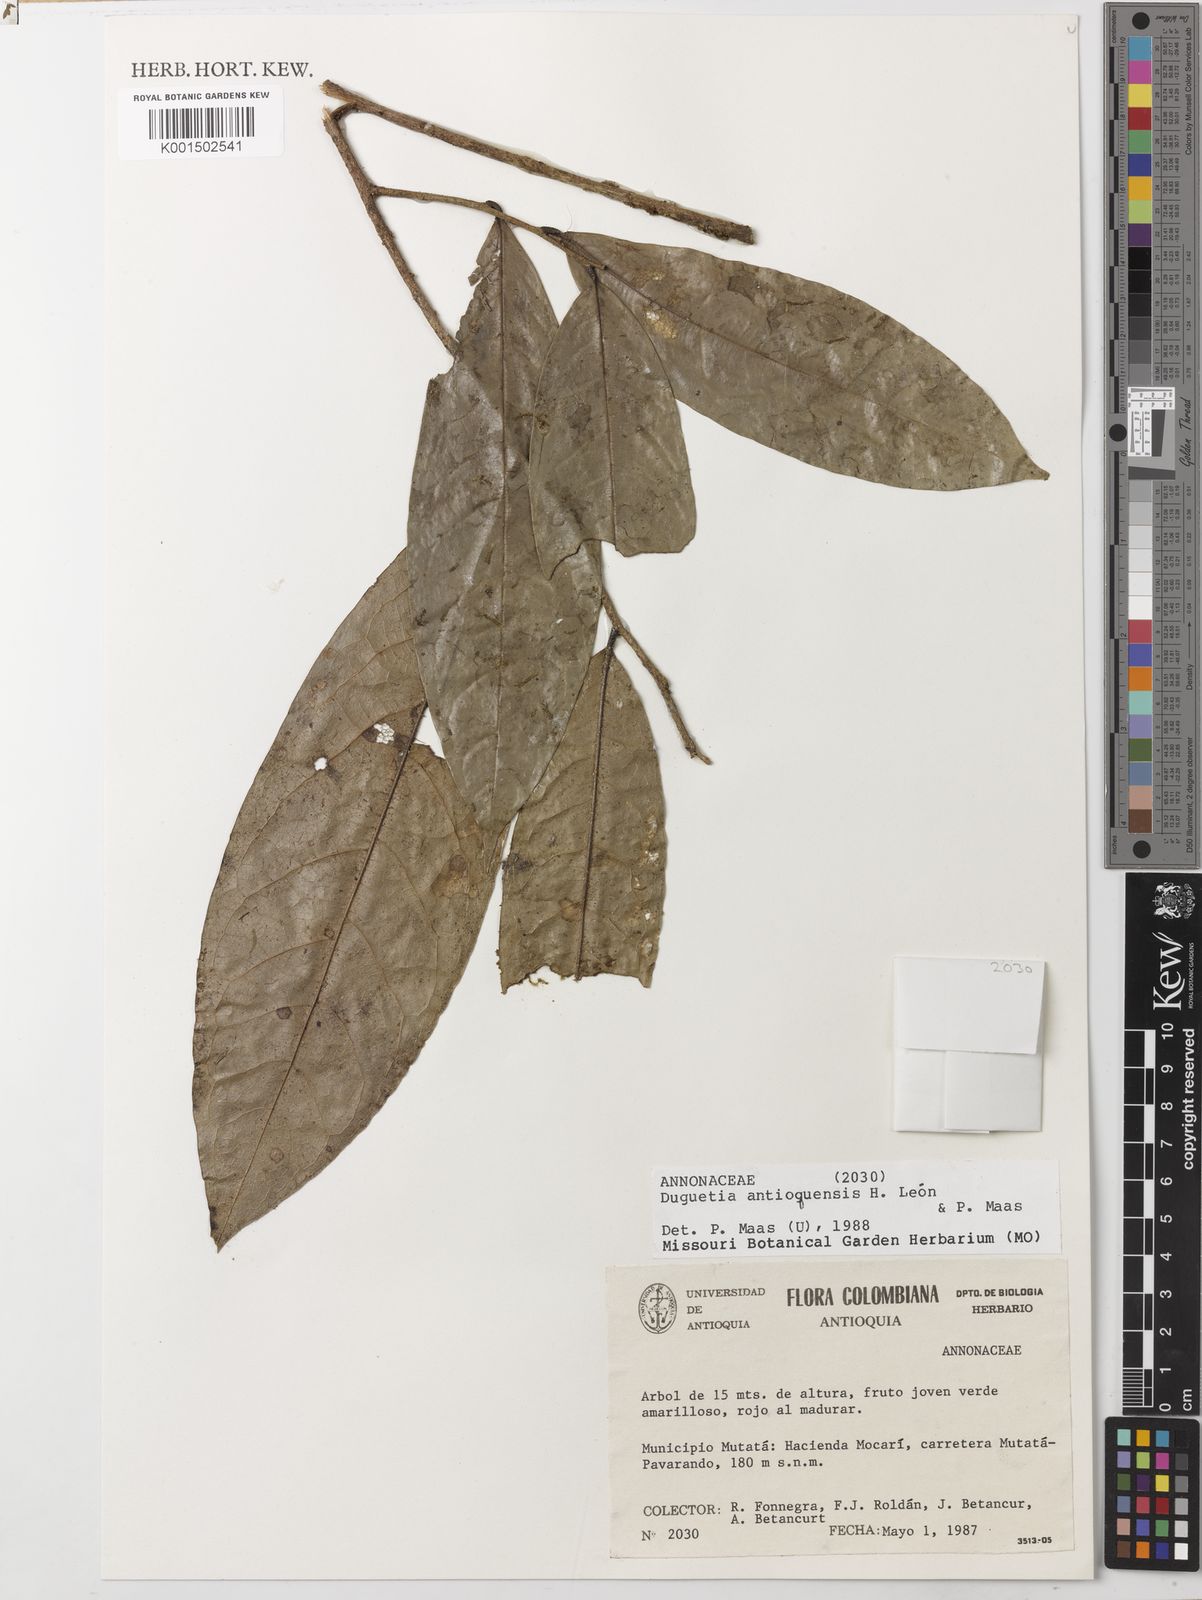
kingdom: Plantae
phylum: Tracheophyta
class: Magnoliopsida
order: Magnoliales
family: Annonaceae
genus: Duguetia
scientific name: Duguetia antioquensis
